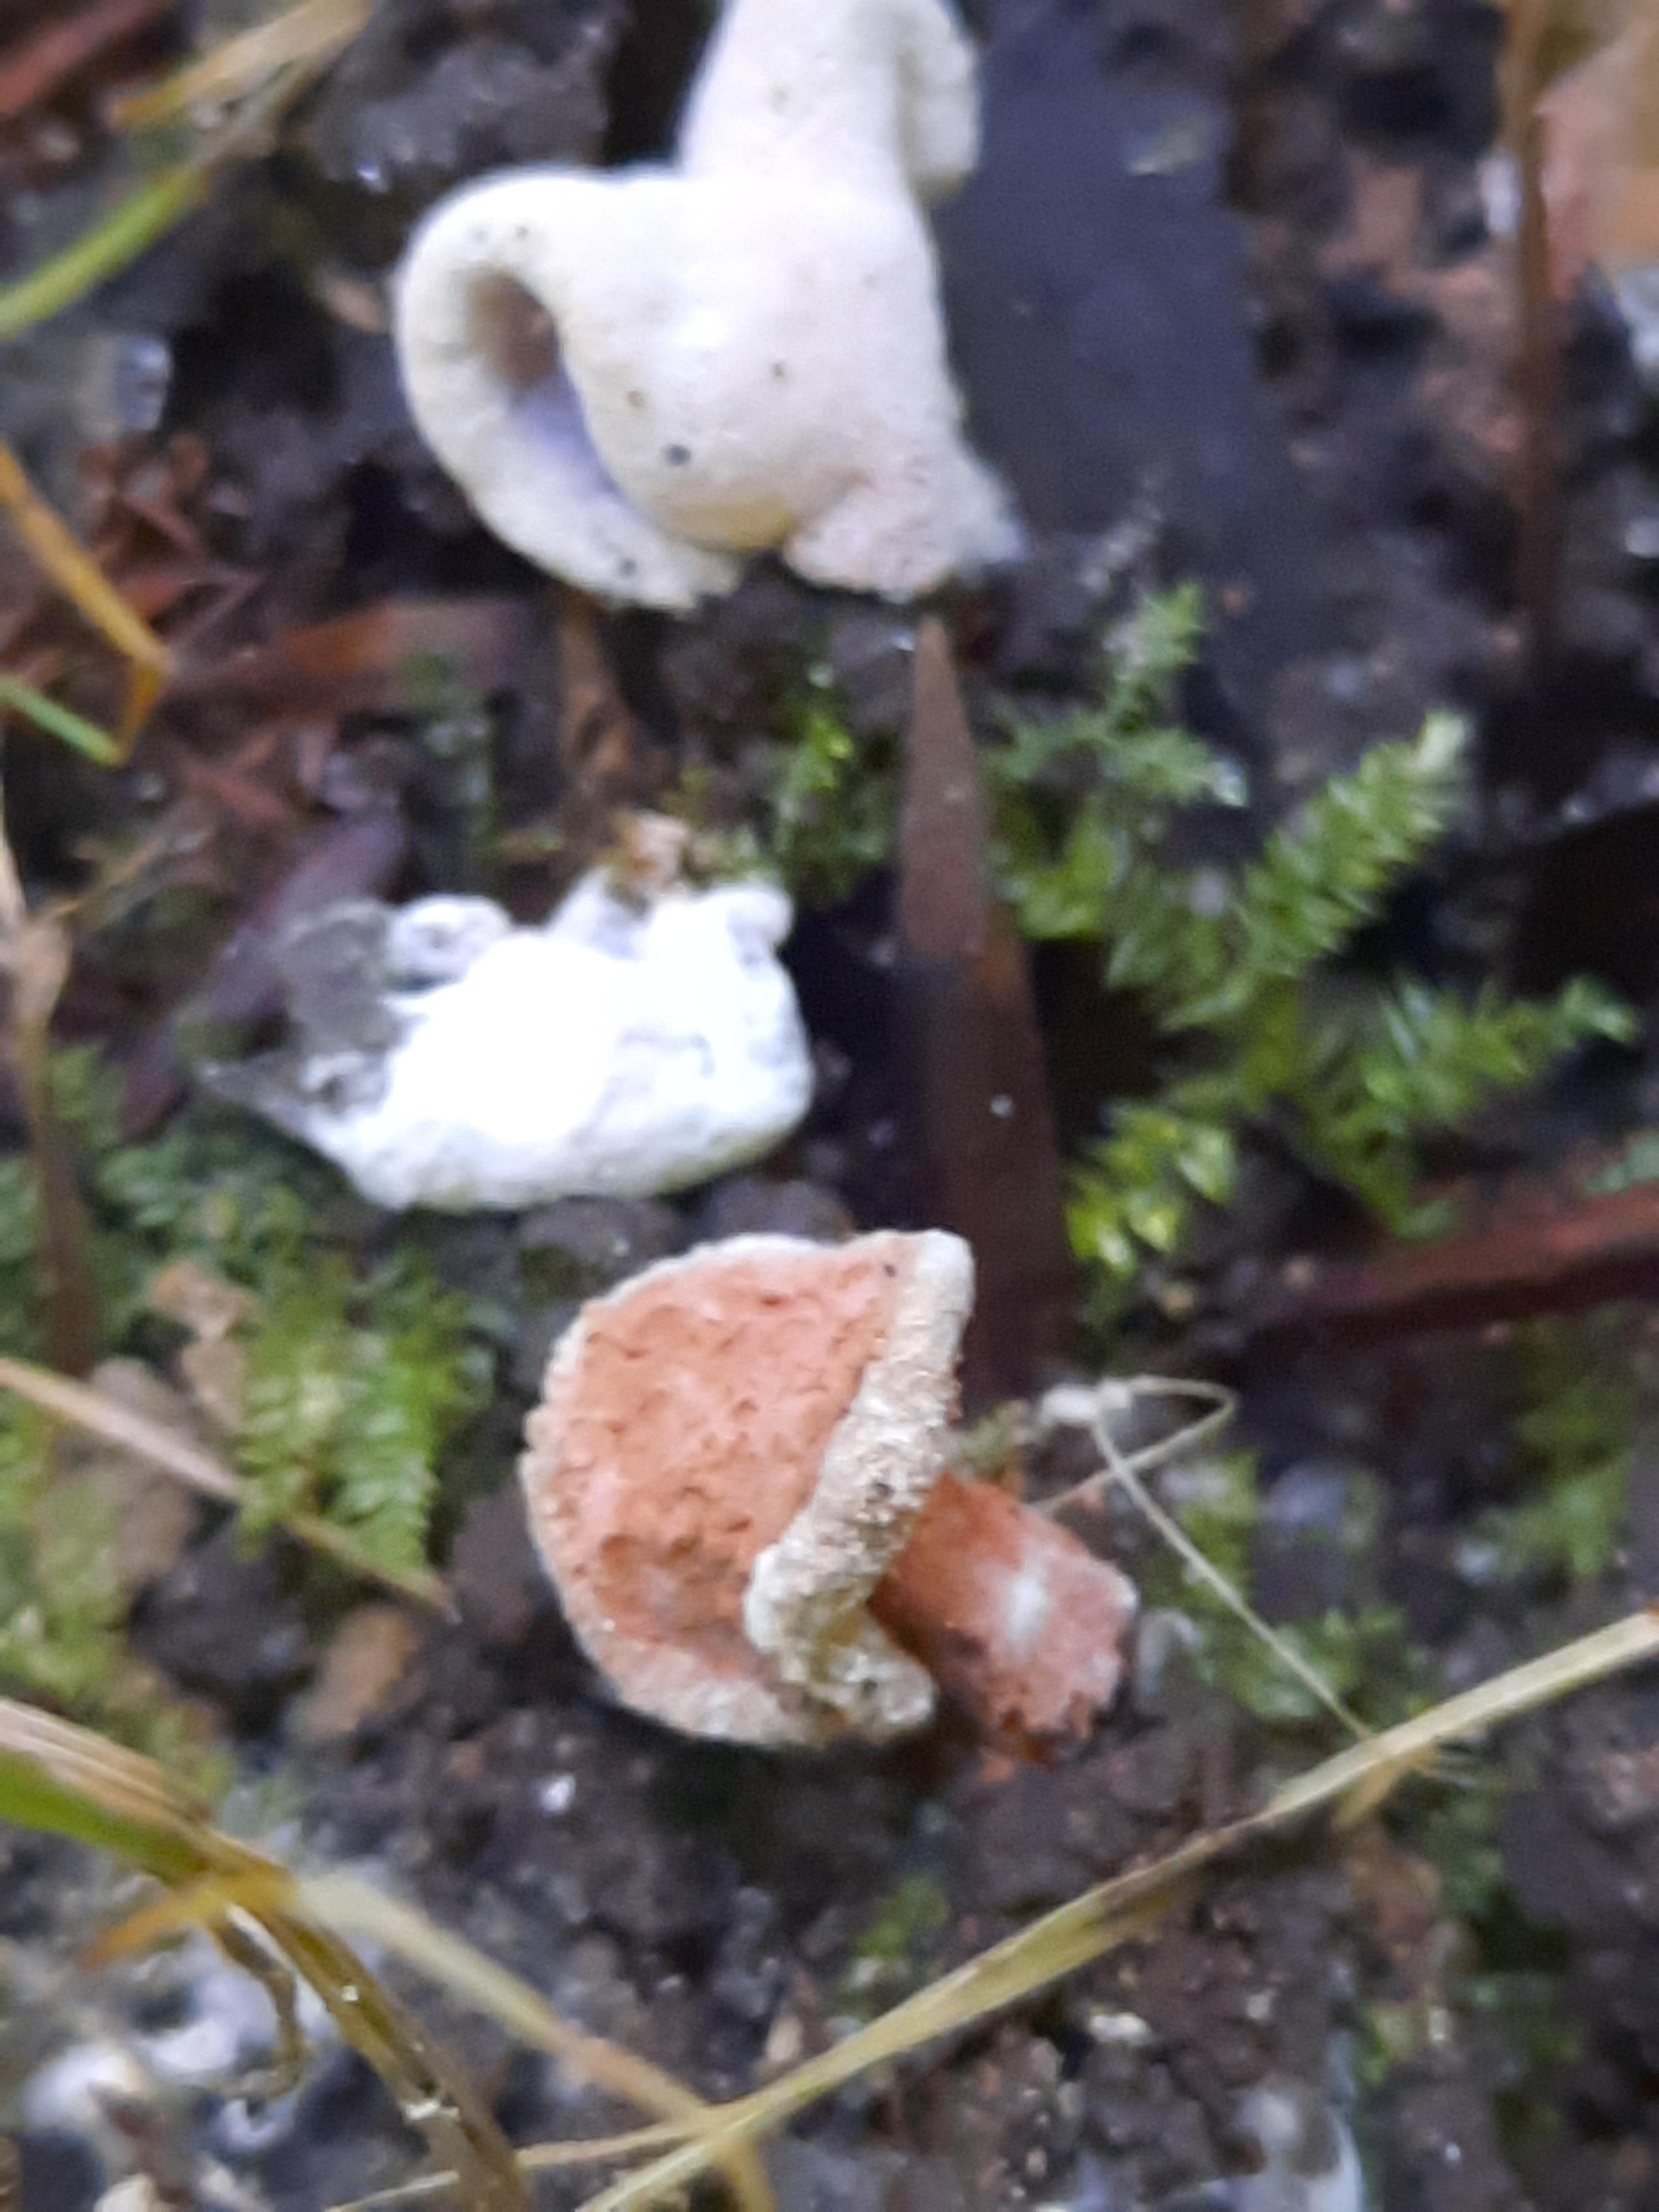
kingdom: Fungi
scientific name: Fungi
